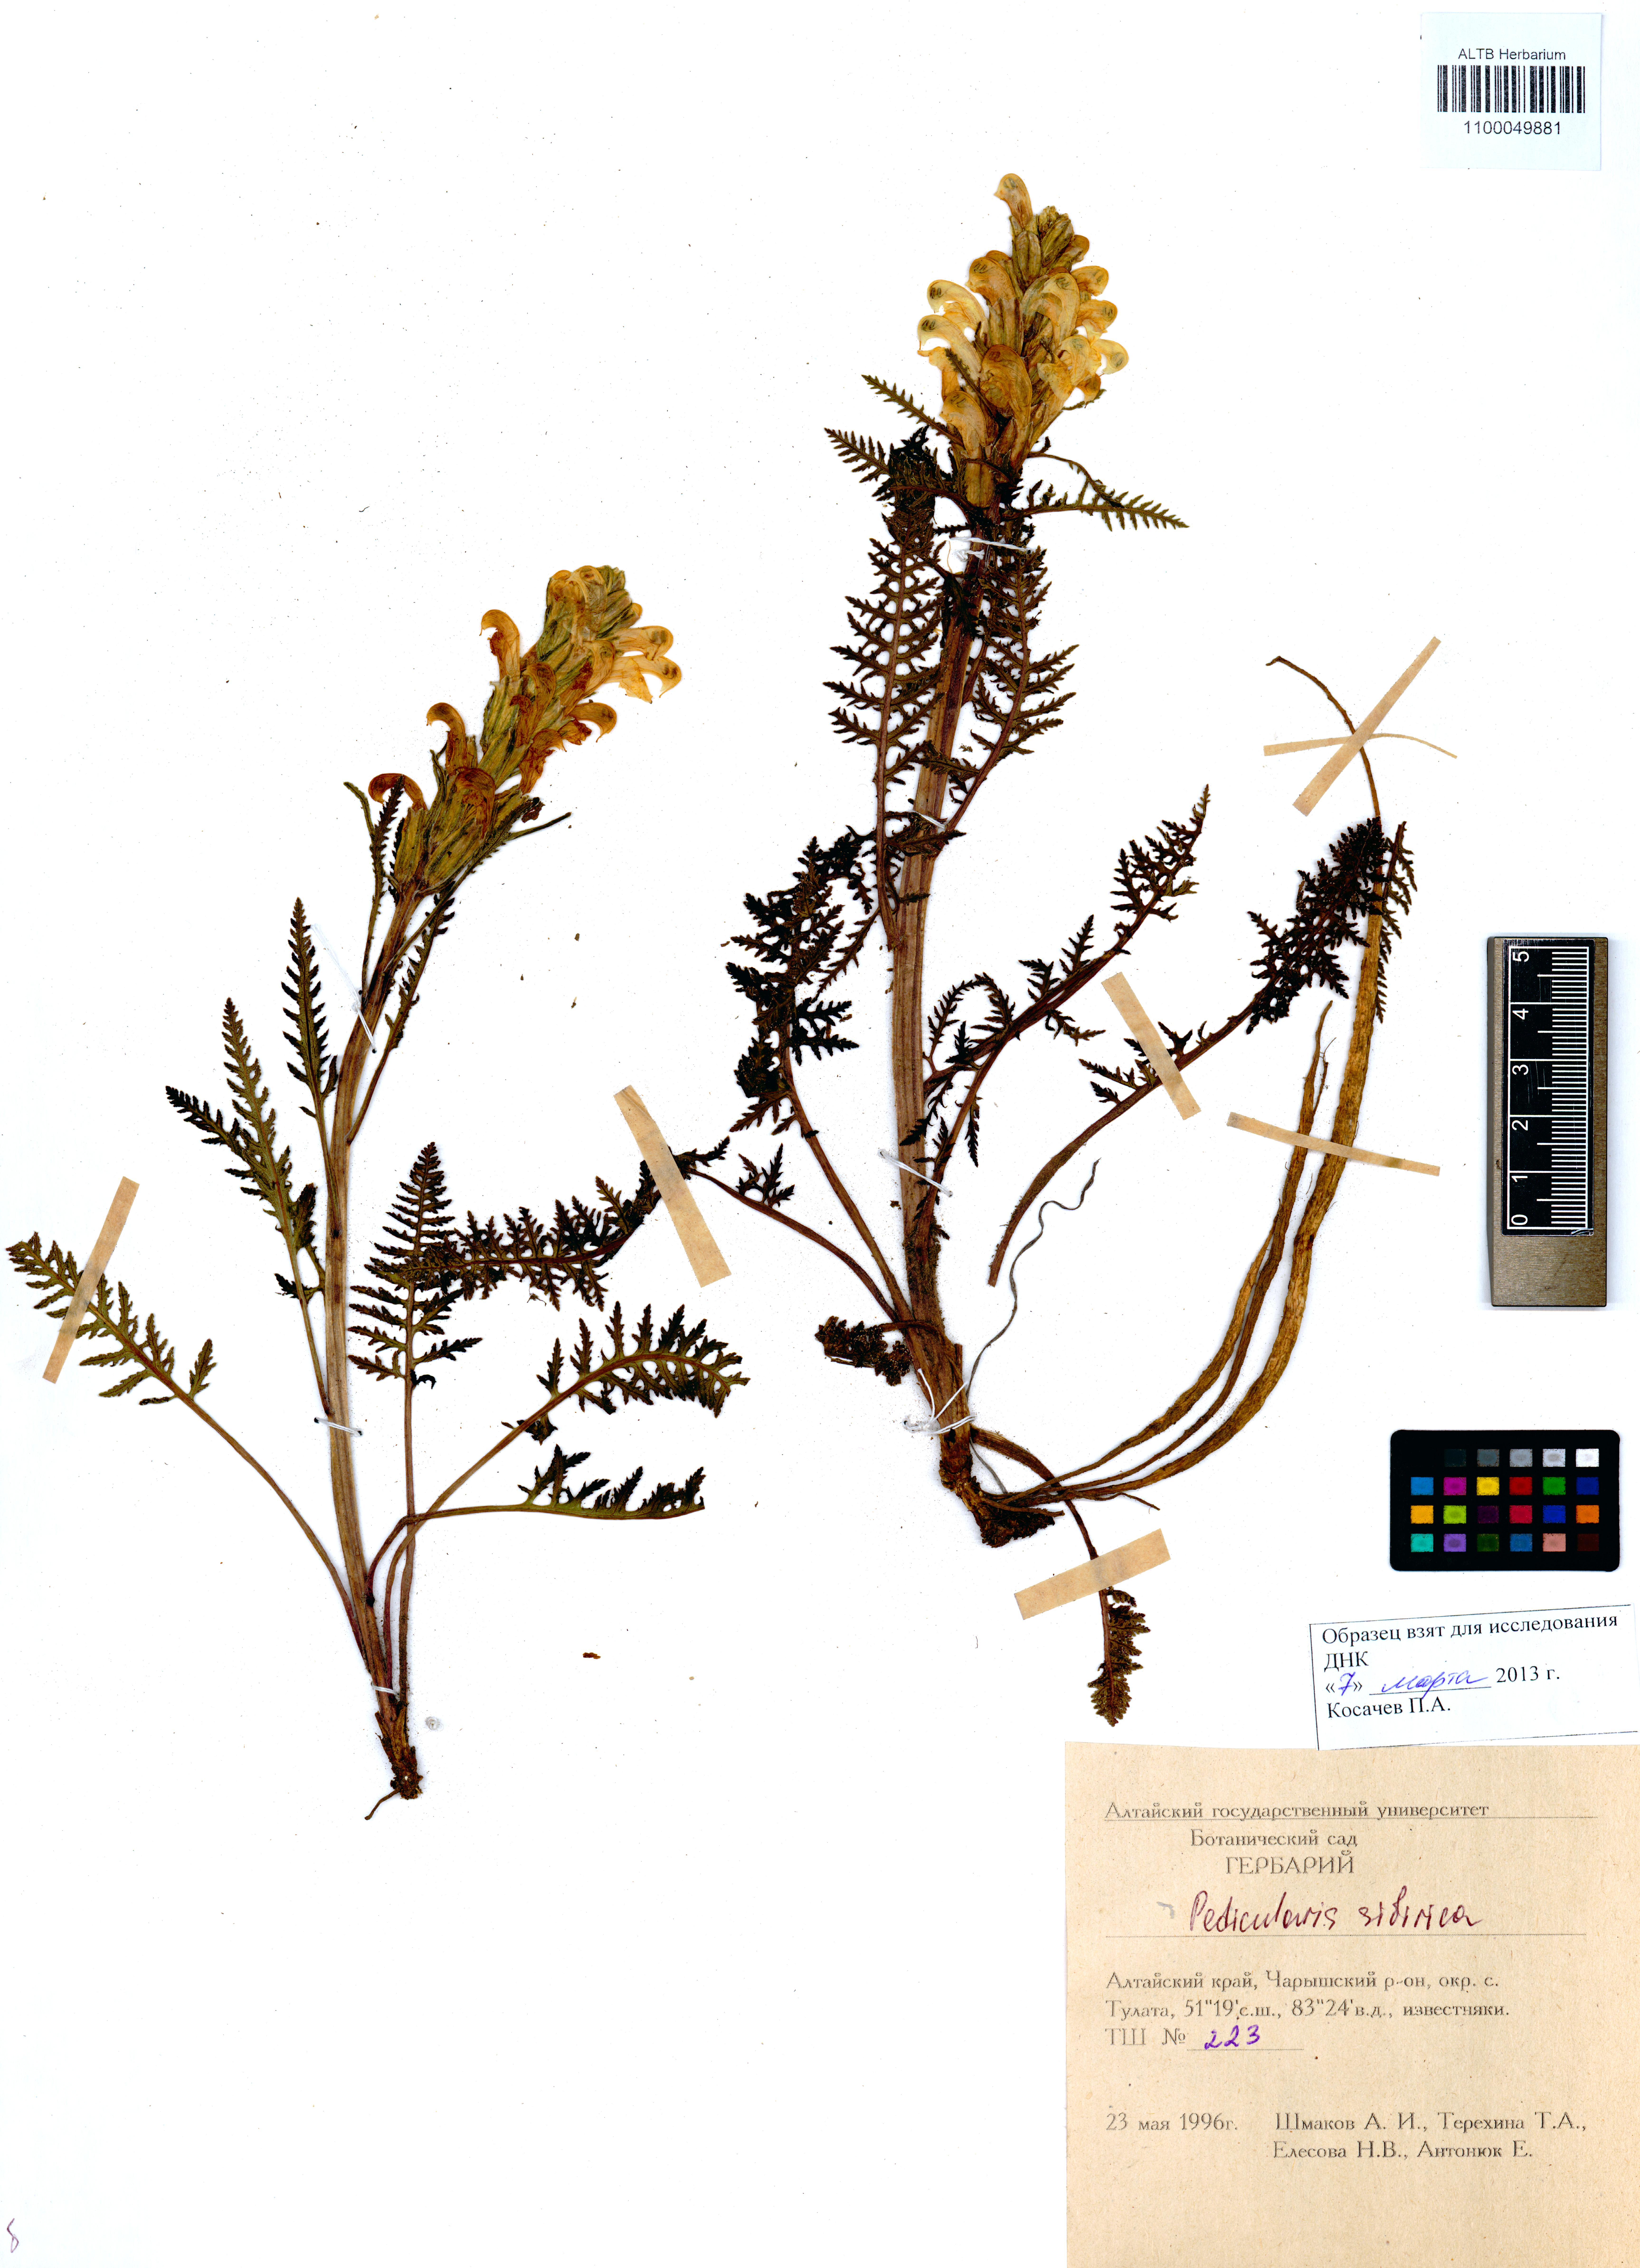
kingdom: Plantae
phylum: Tracheophyta
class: Magnoliopsida
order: Lamiales
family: Orobanchaceae
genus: Pedicularis
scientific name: Pedicularis sibirica
